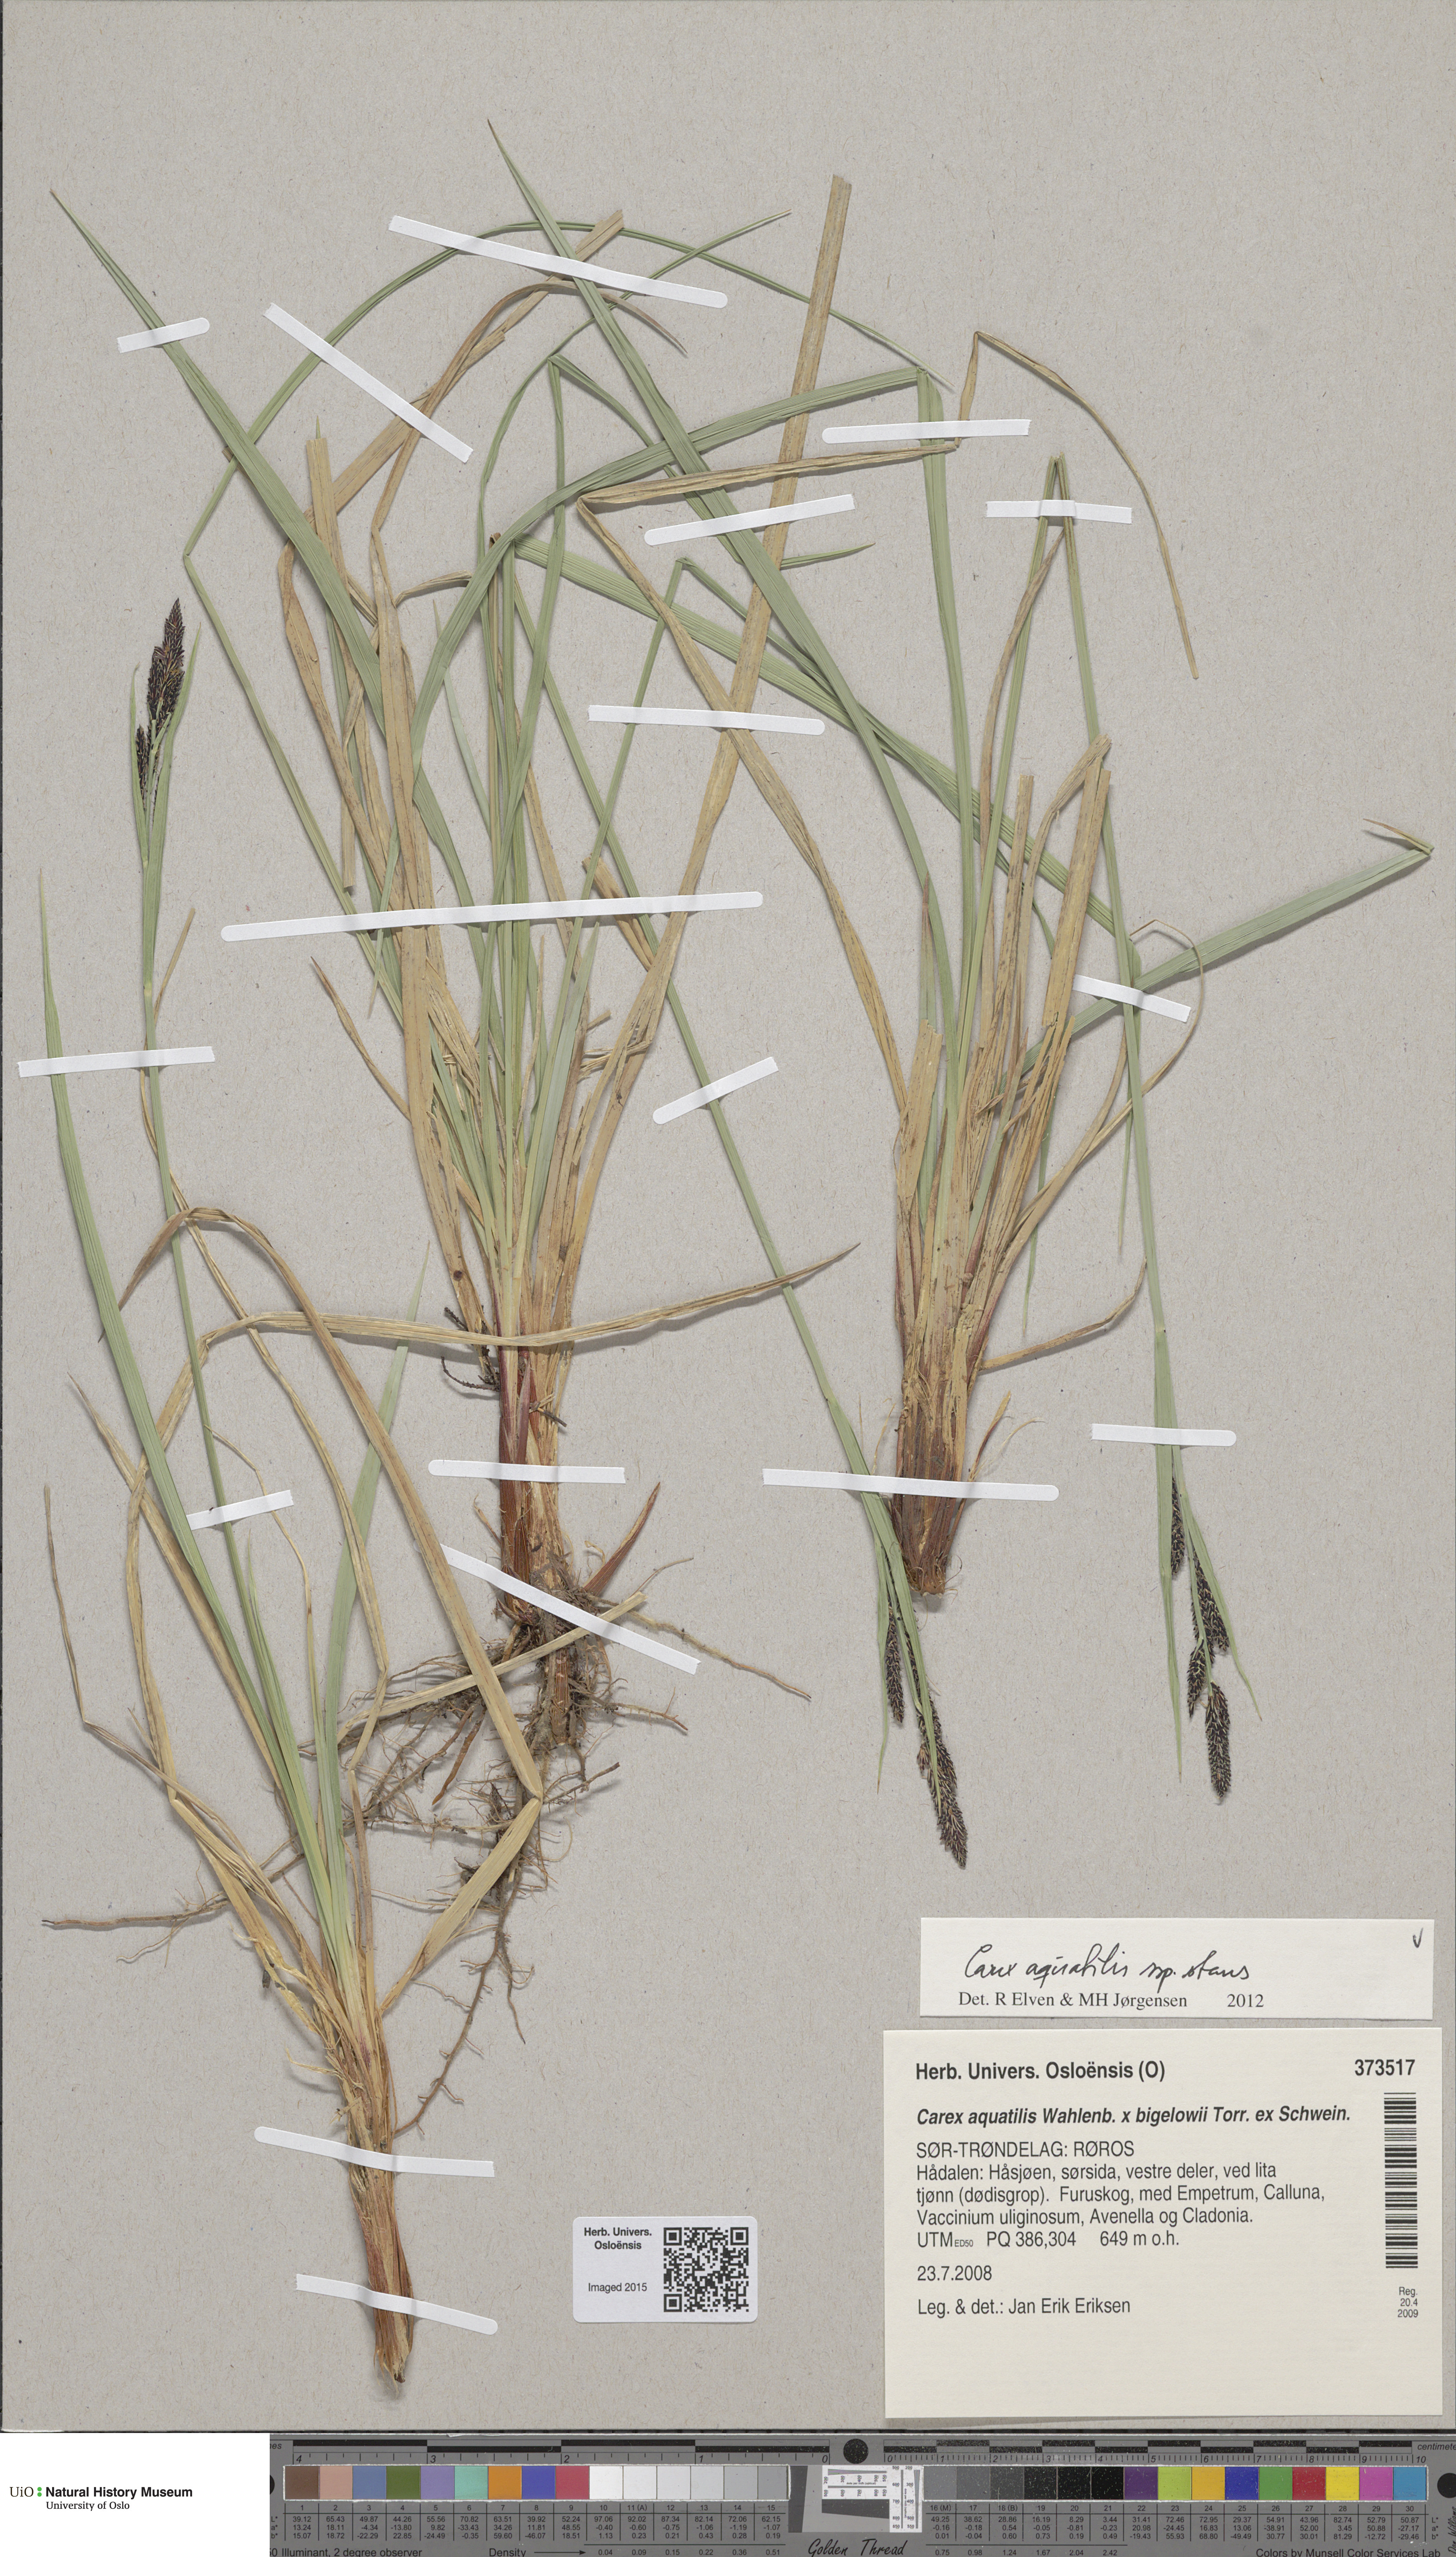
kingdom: Plantae
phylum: Tracheophyta
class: Liliopsida
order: Poales
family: Cyperaceae
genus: Carex
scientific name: Carex aquatilis
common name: Water sedge
